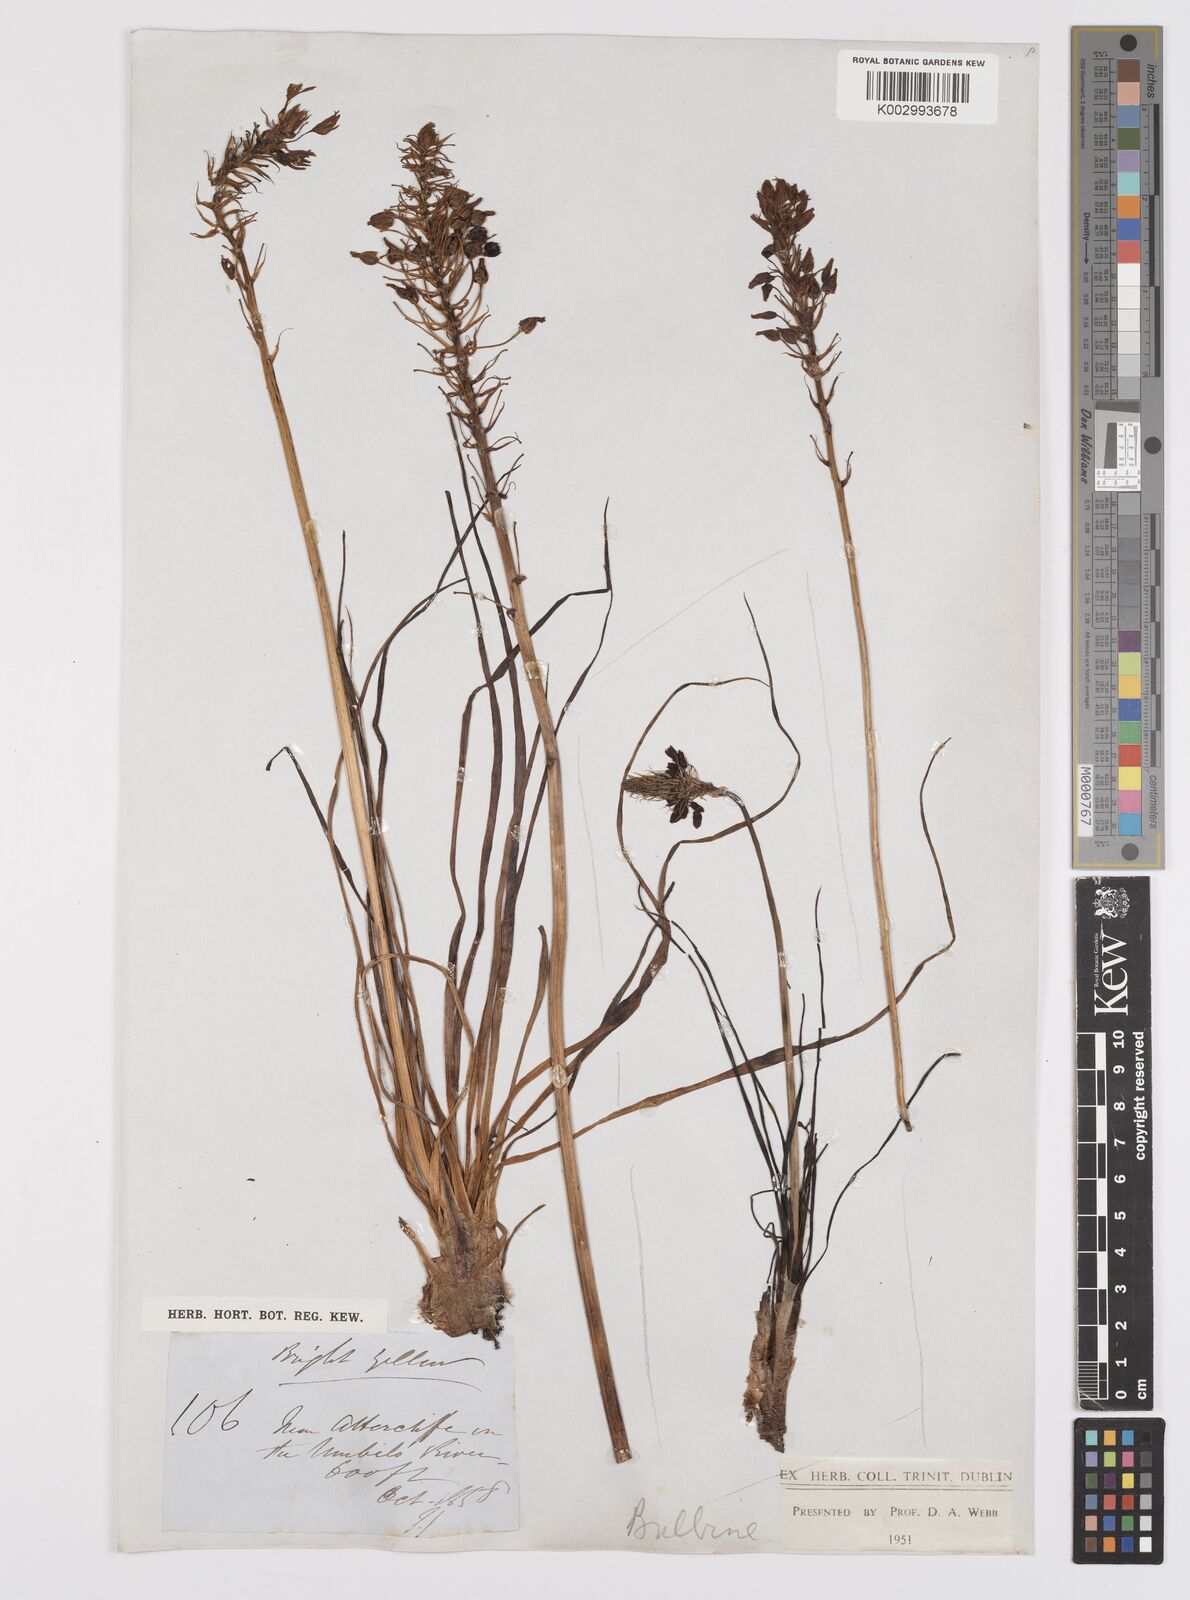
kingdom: Plantae
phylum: Tracheophyta
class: Liliopsida
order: Asparagales
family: Asphodelaceae
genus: Bulbine
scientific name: Bulbine capitata
